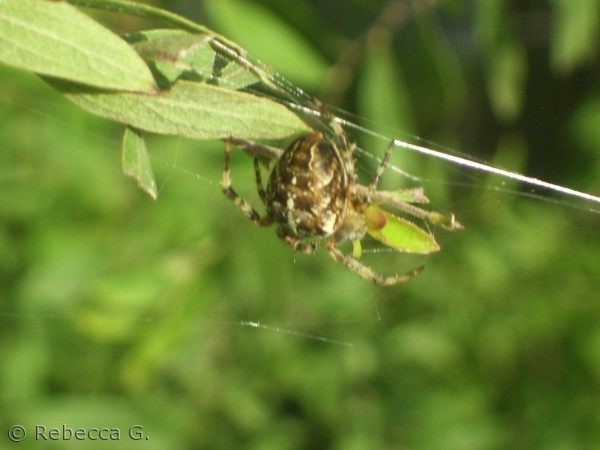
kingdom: Animalia
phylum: Arthropoda
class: Arachnida
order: Araneae
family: Araneidae
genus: Araneus
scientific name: Araneus diadematus
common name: Korsedderkop
